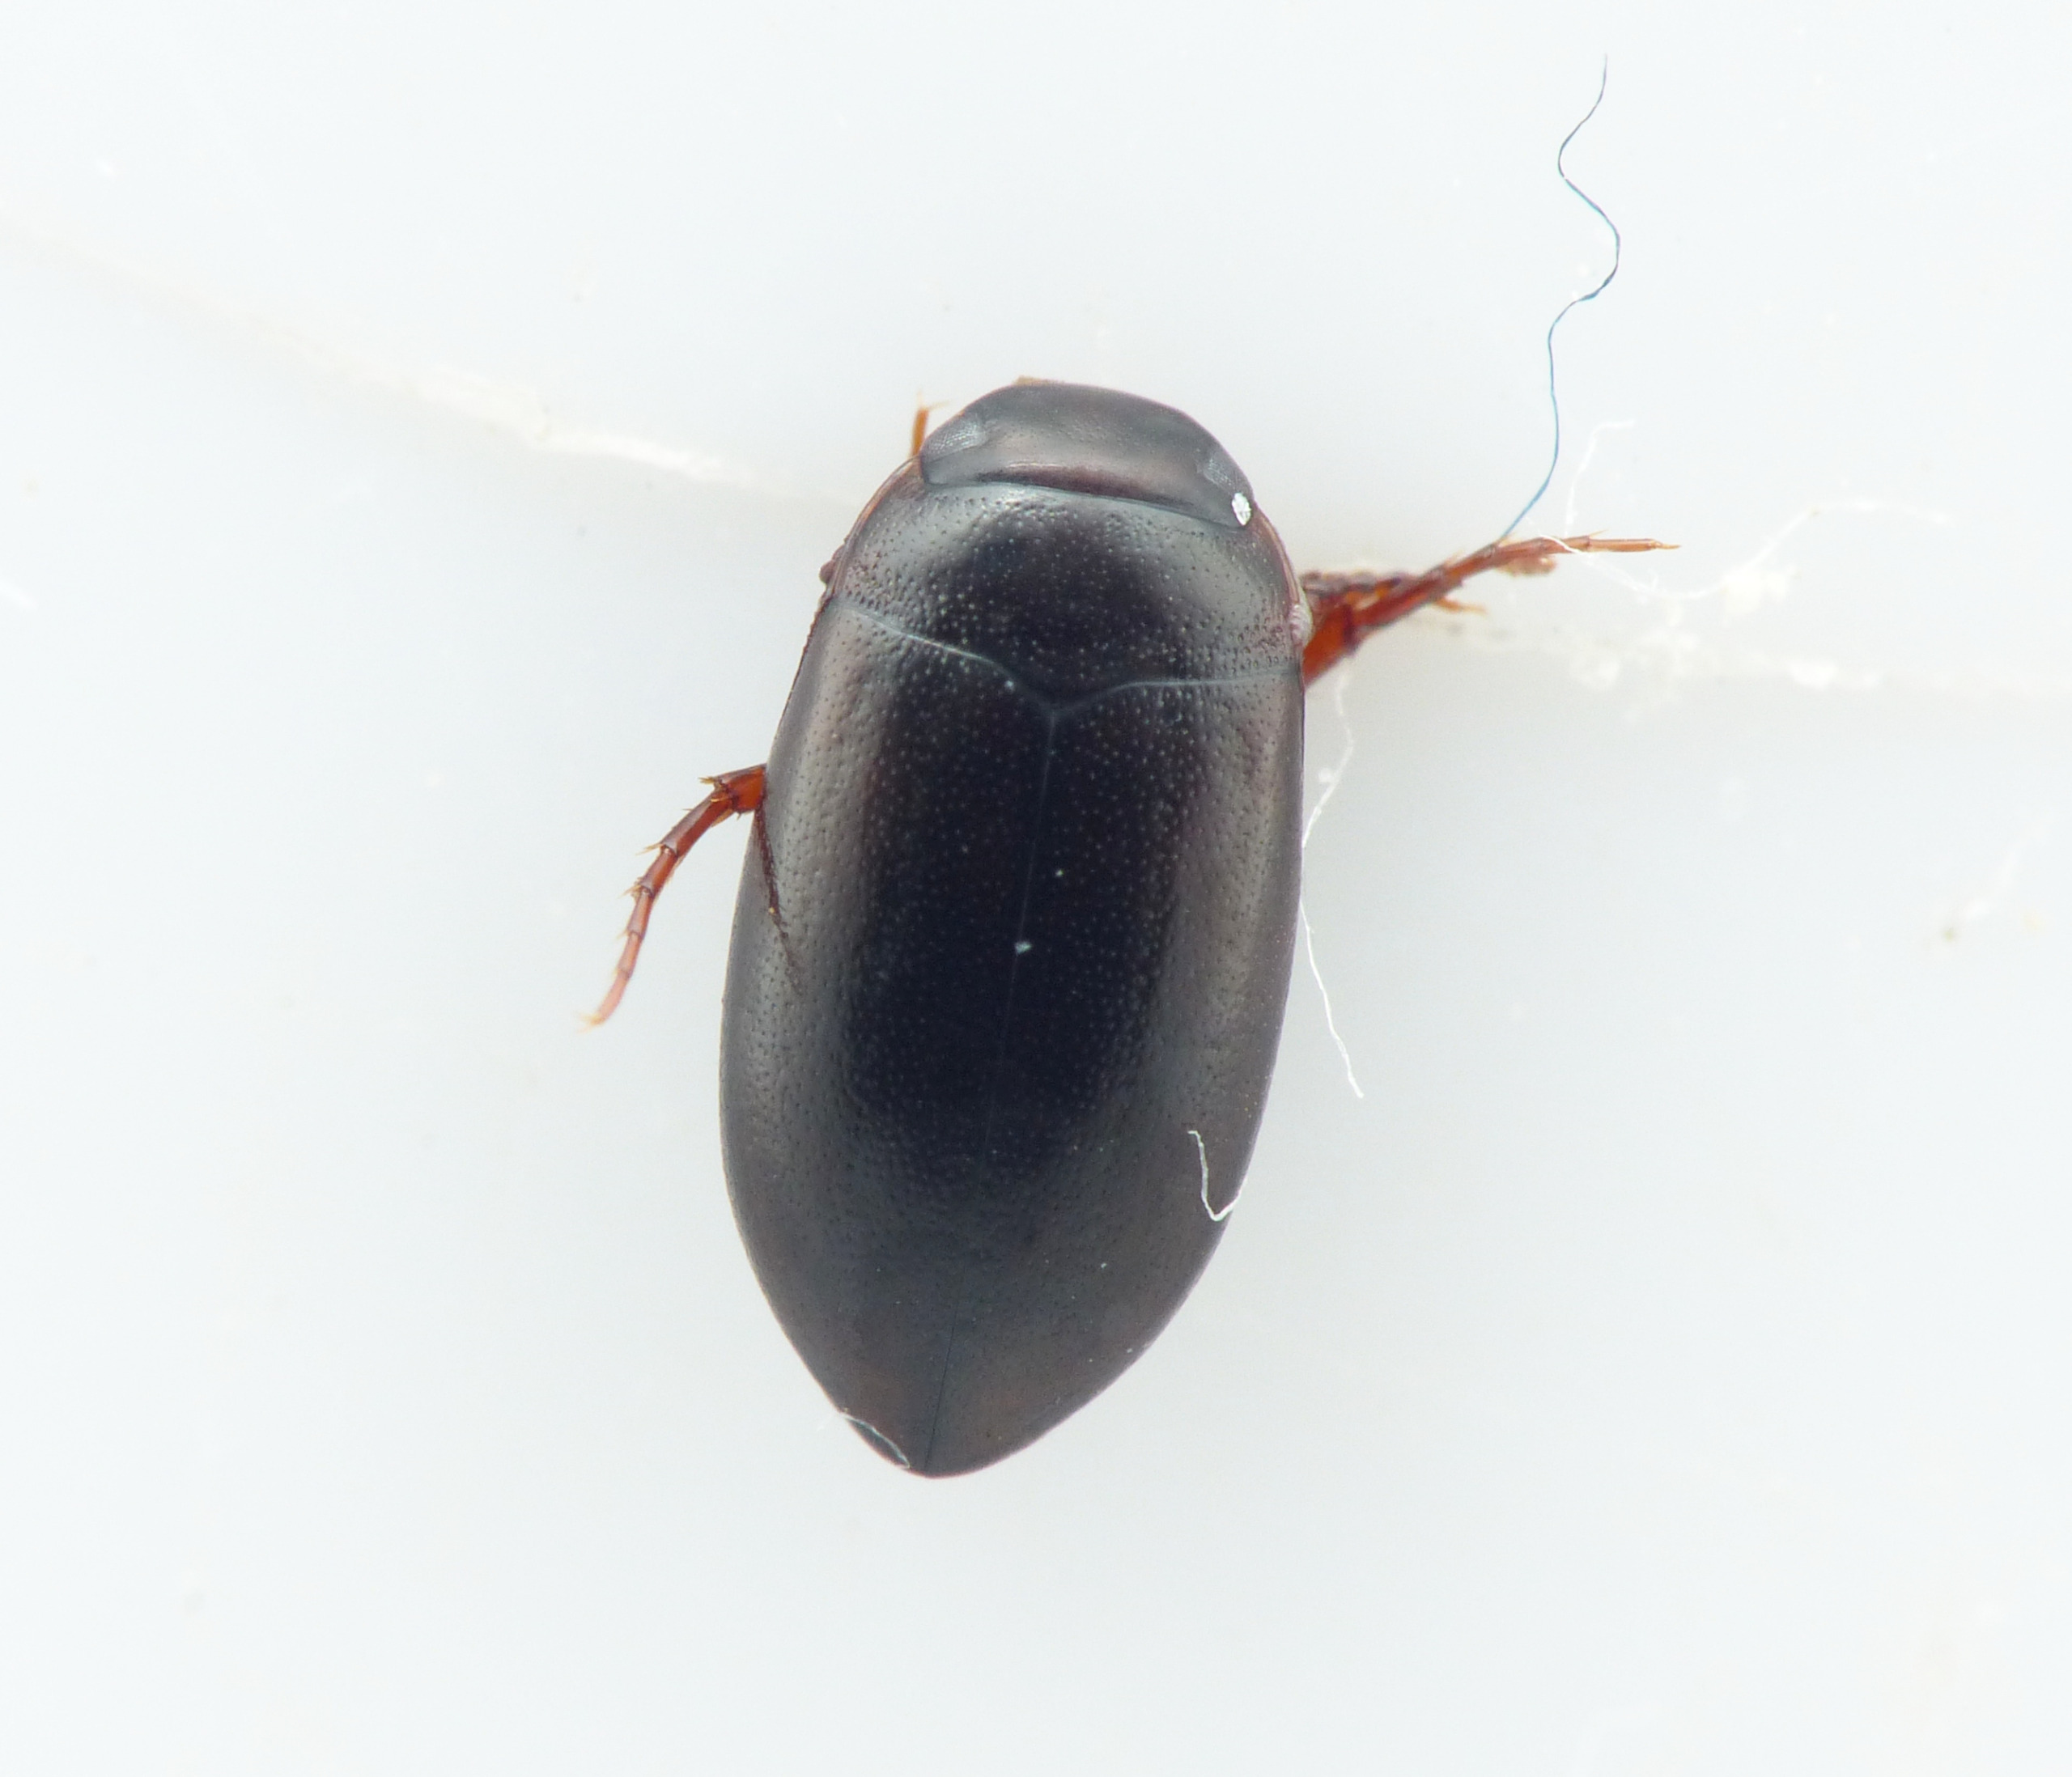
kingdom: Animalia
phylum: Arthropoda
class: Insecta
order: Coleoptera
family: Dytiscidae
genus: Hydroporus
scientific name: Hydroporus gyllenhalii
